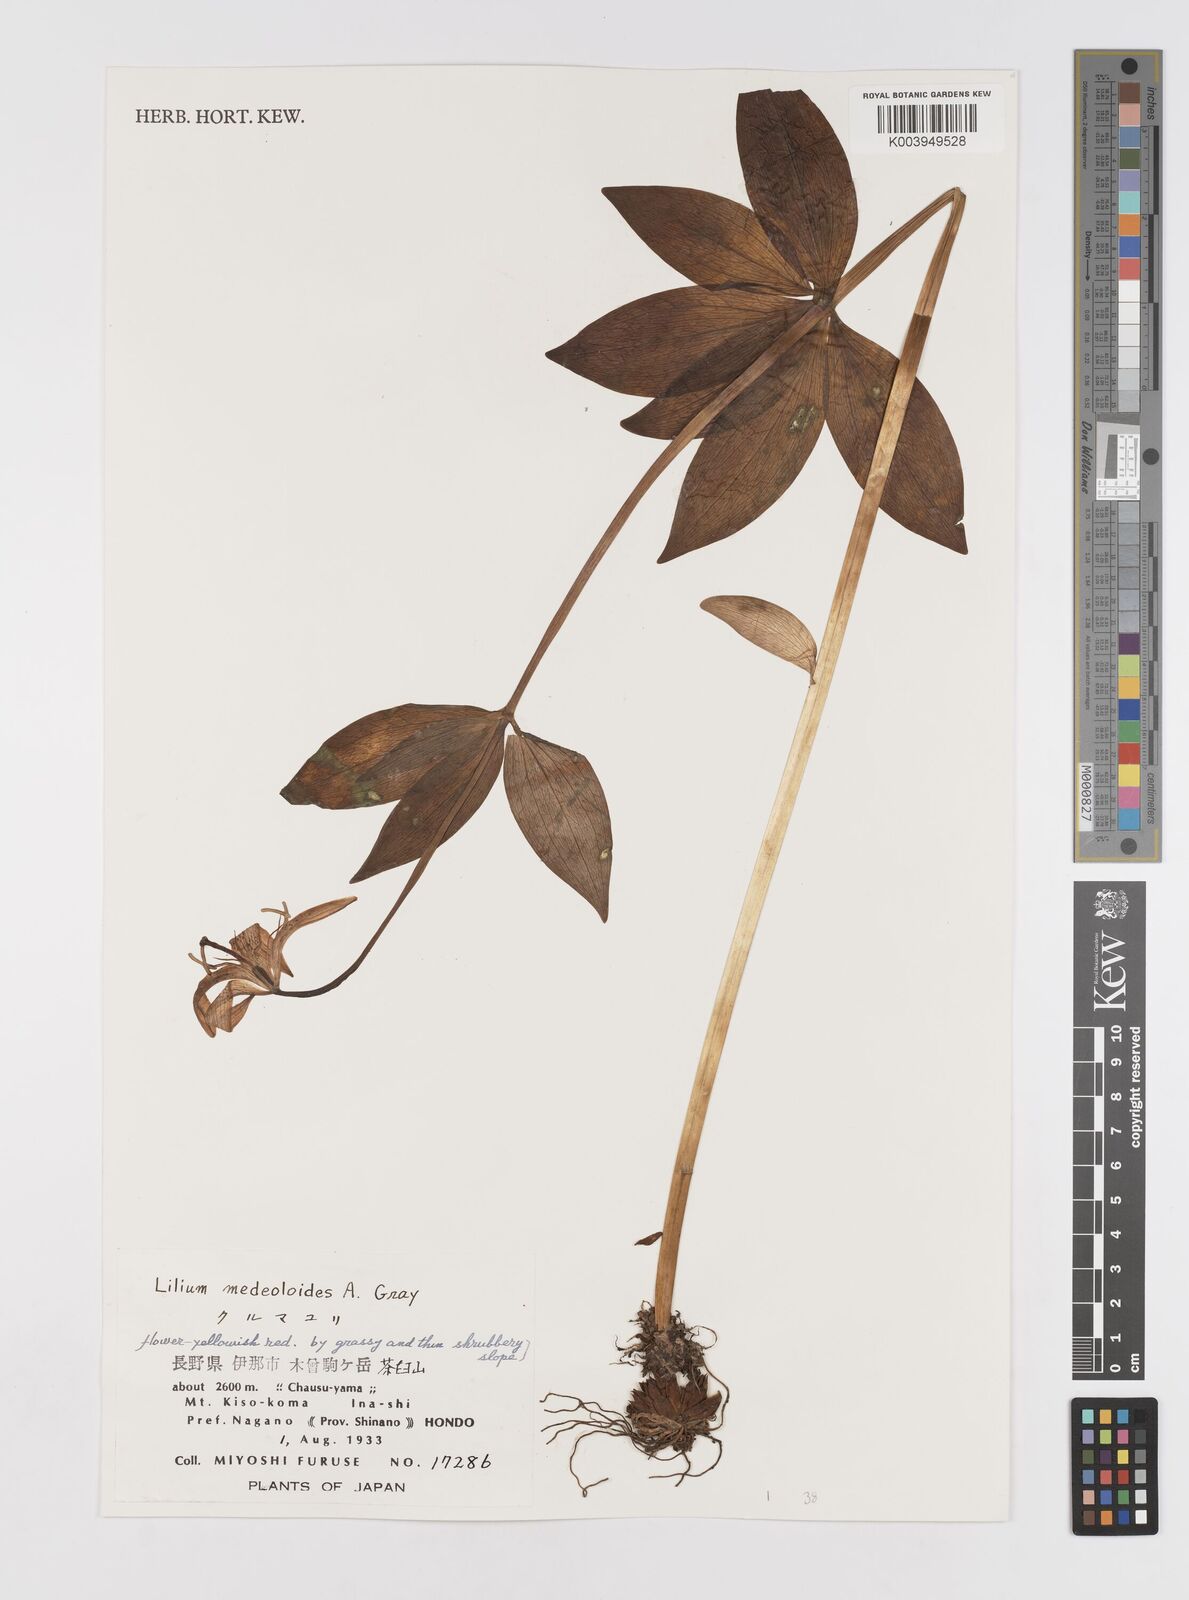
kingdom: Plantae
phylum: Tracheophyta
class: Liliopsida
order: Liliales
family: Liliaceae
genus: Lilium
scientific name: Lilium medeoloides
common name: Wheel lily
